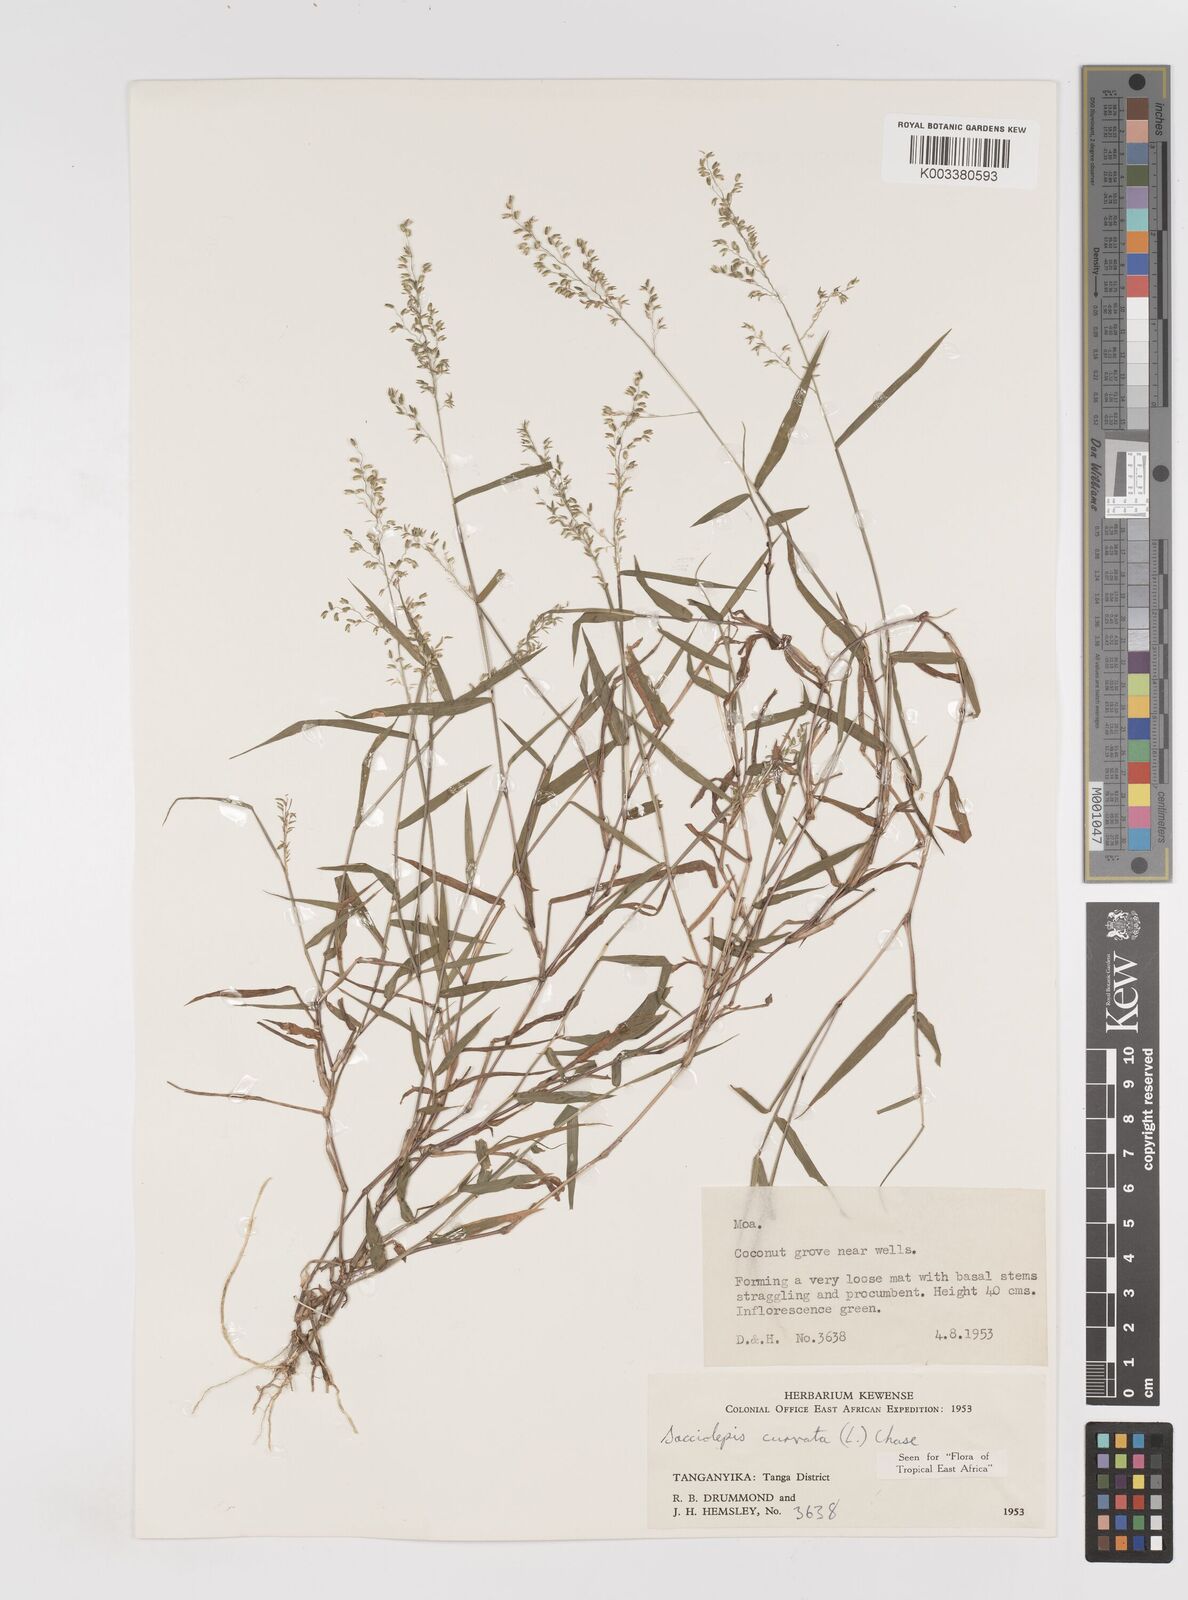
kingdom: Plantae
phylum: Tracheophyta
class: Liliopsida
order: Poales
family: Poaceae
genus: Sacciolepis
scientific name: Sacciolepis curvata
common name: Forest hood grass
